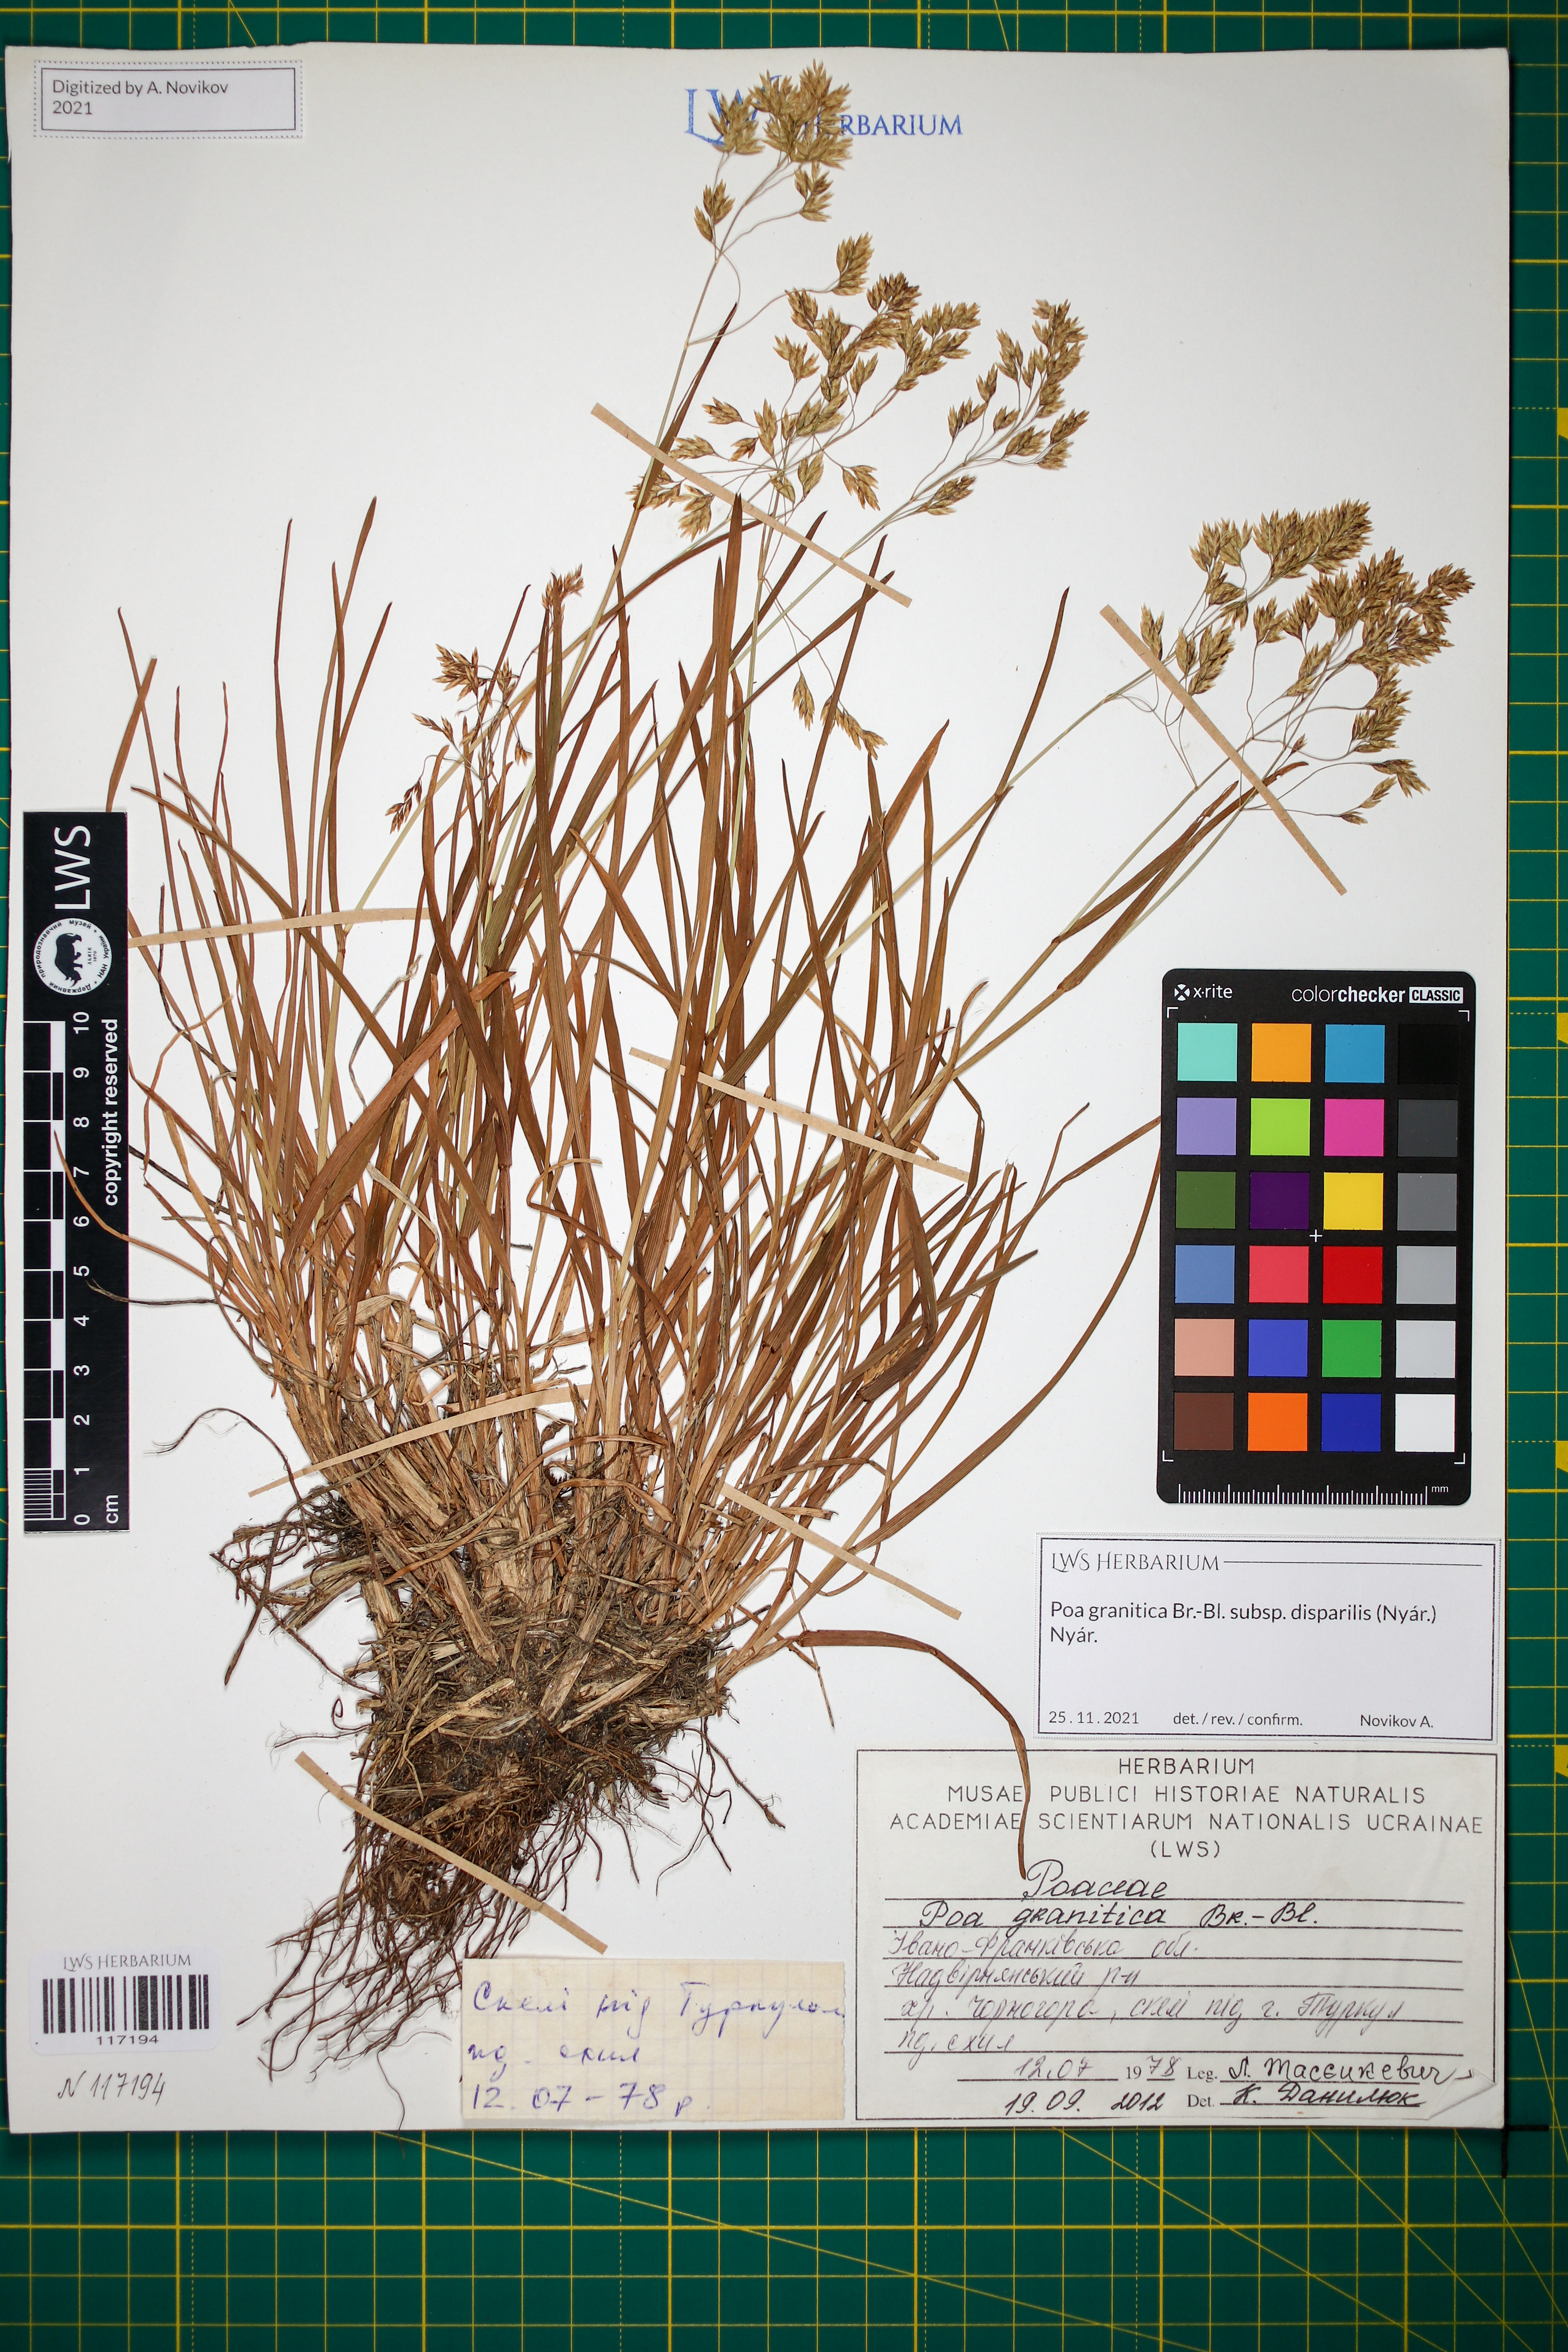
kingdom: Plantae
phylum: Tracheophyta
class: Liliopsida
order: Poales
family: Poaceae
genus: Poa
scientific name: Poa granitica
